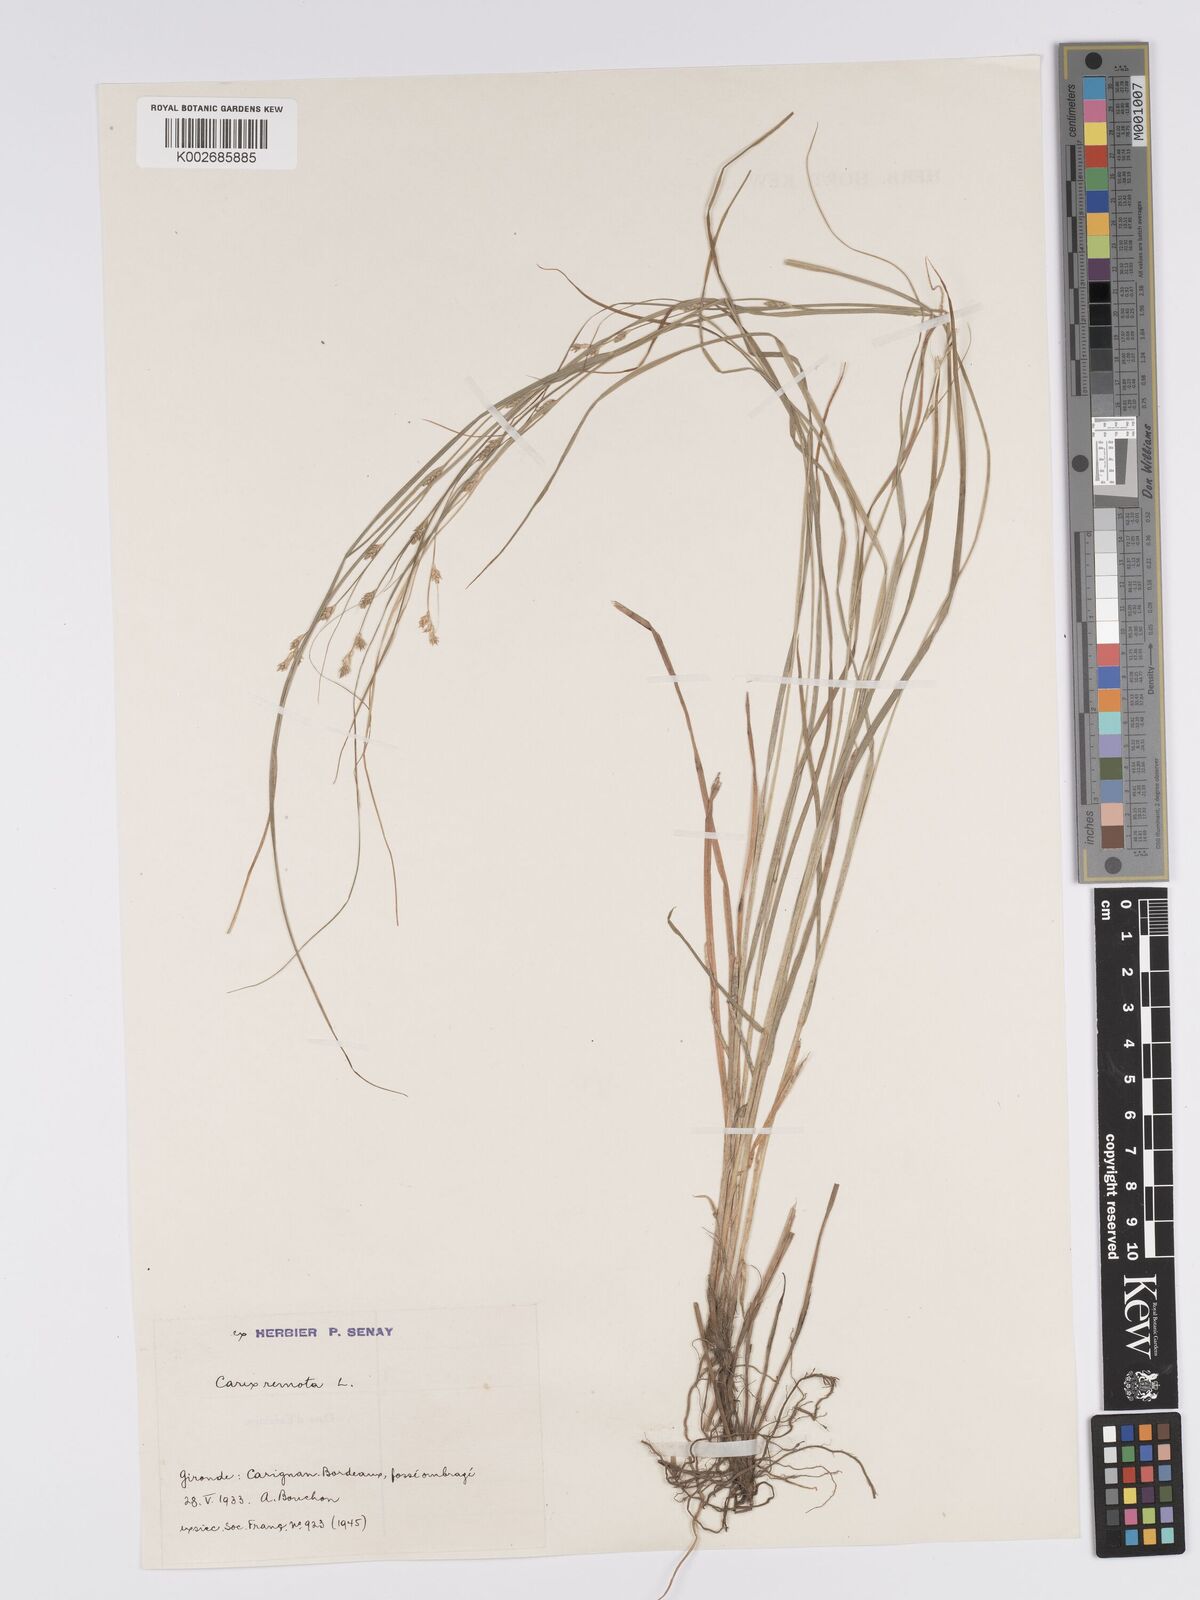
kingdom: Plantae
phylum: Tracheophyta
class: Liliopsida
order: Poales
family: Cyperaceae
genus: Carex
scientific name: Carex remota
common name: Remote sedge
